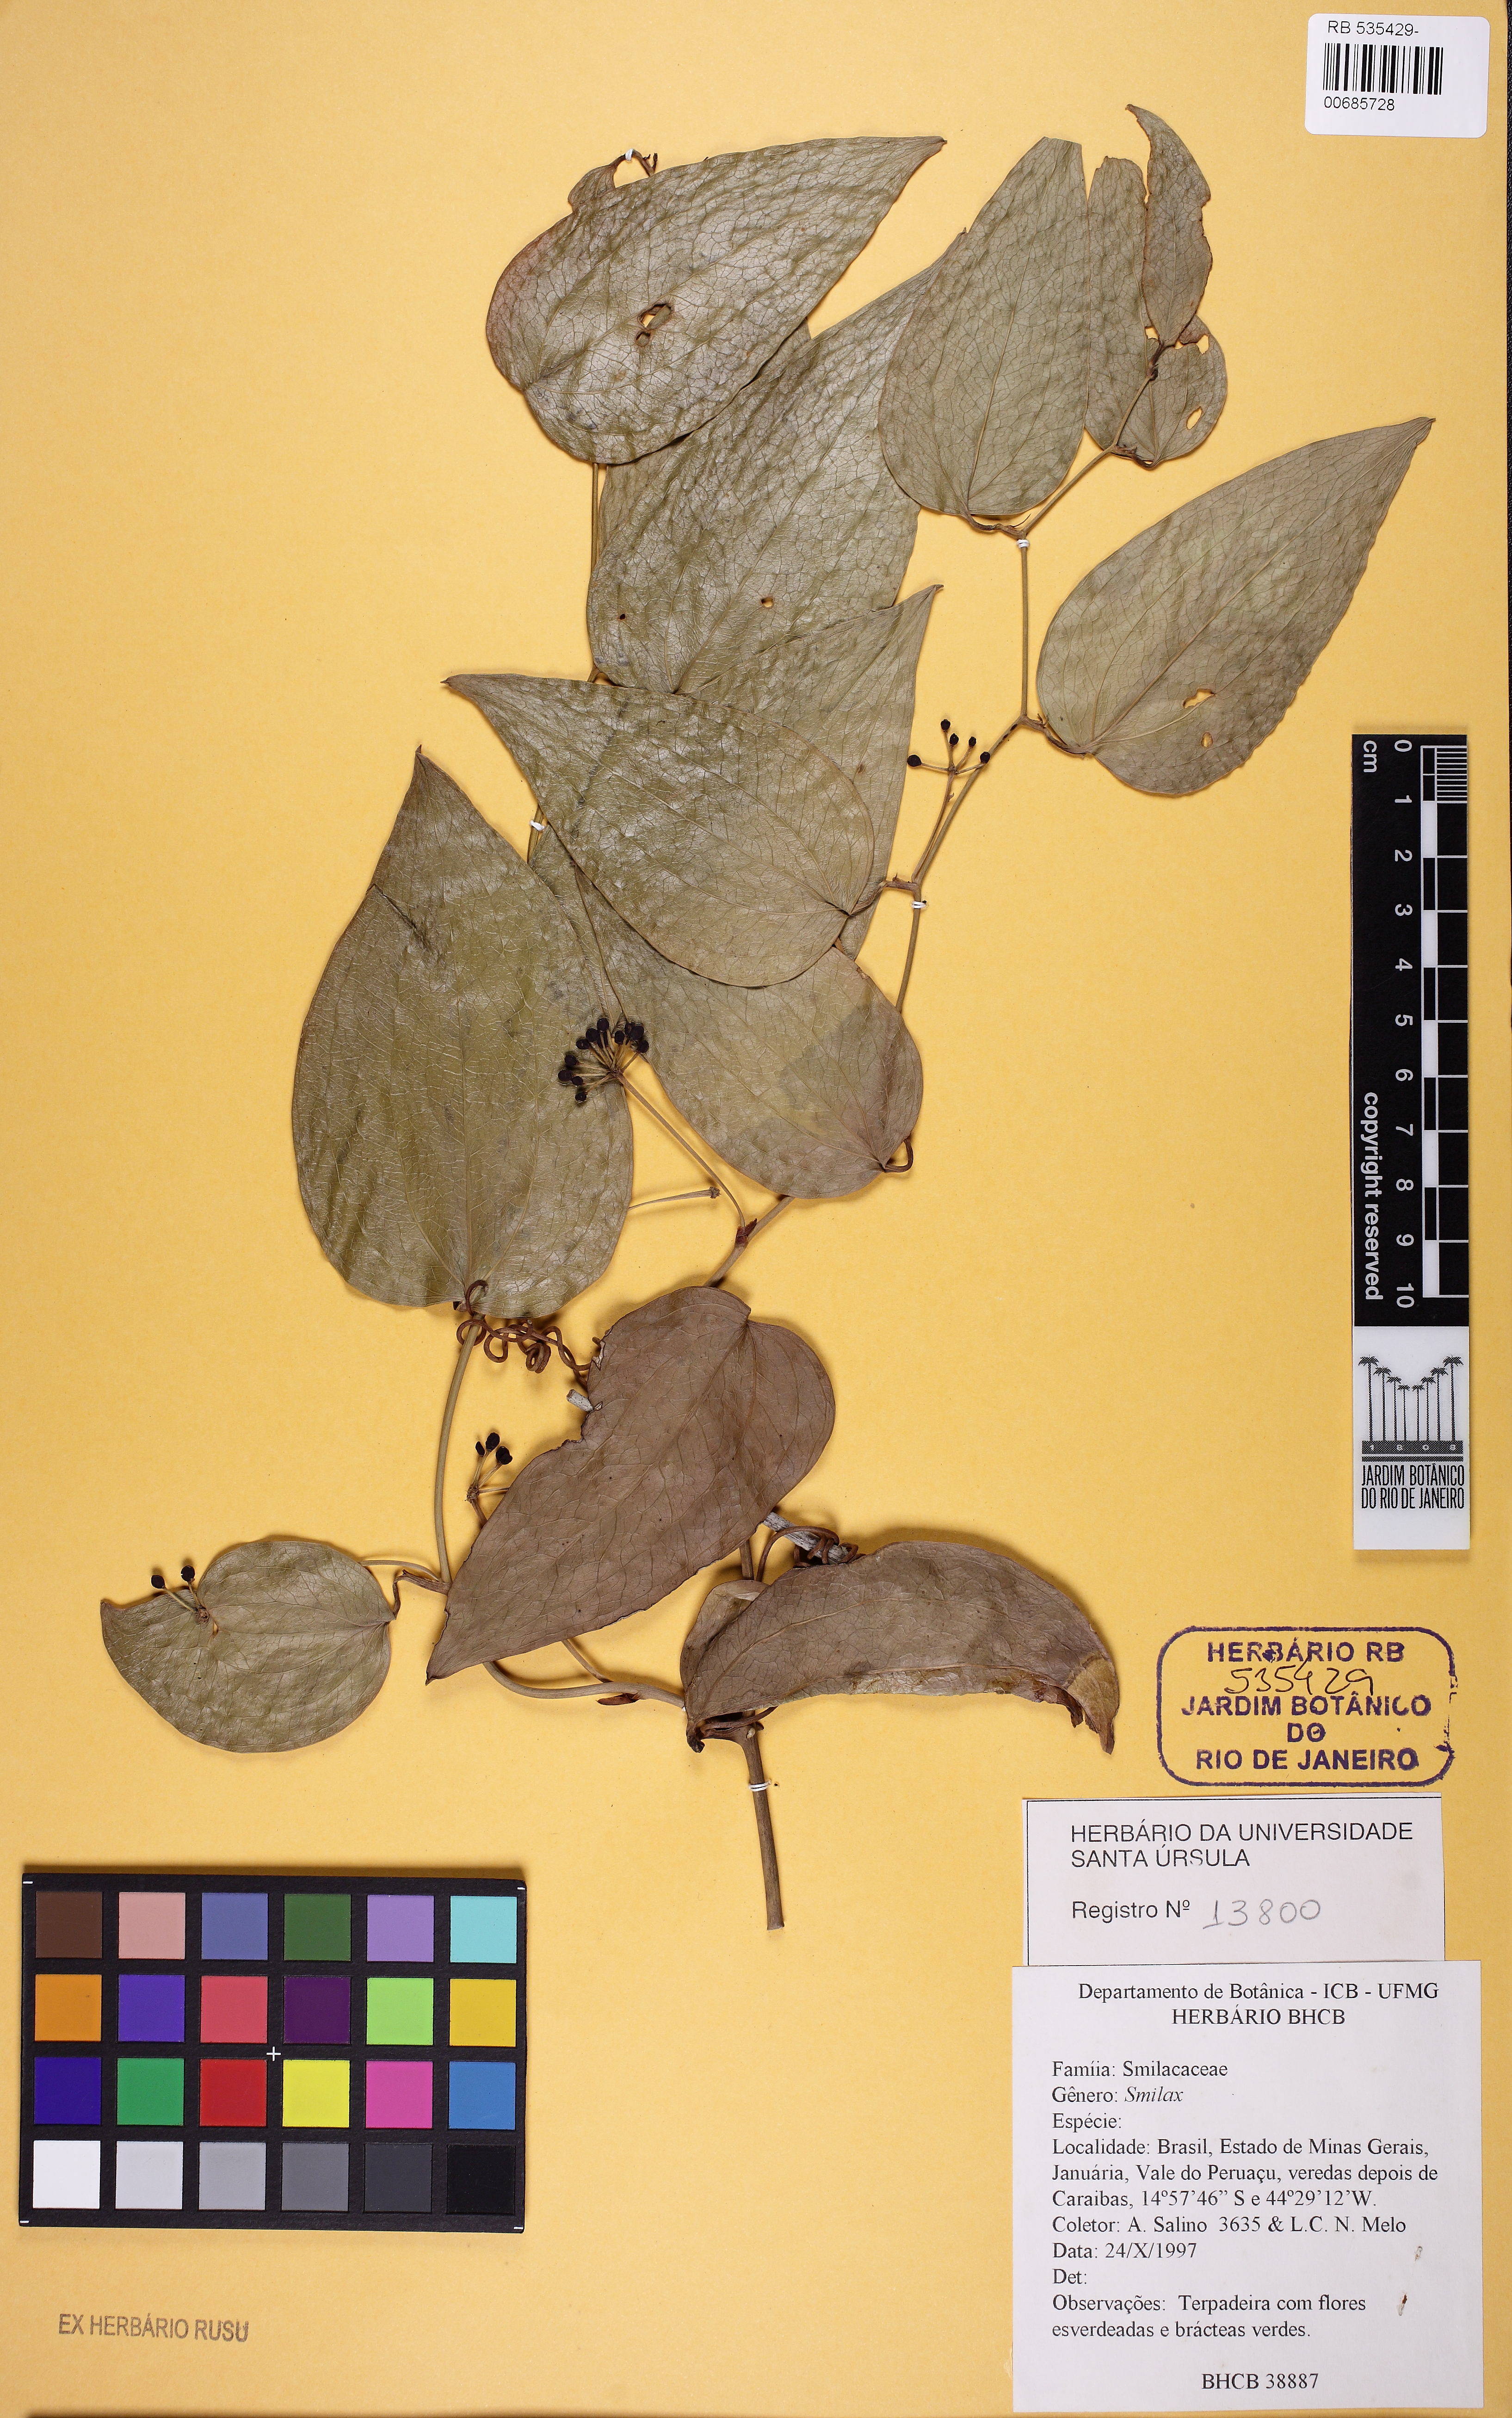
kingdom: Plantae
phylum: Tracheophyta
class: Liliopsida
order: Liliales
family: Smilacaceae
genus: Smilax
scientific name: Smilax
